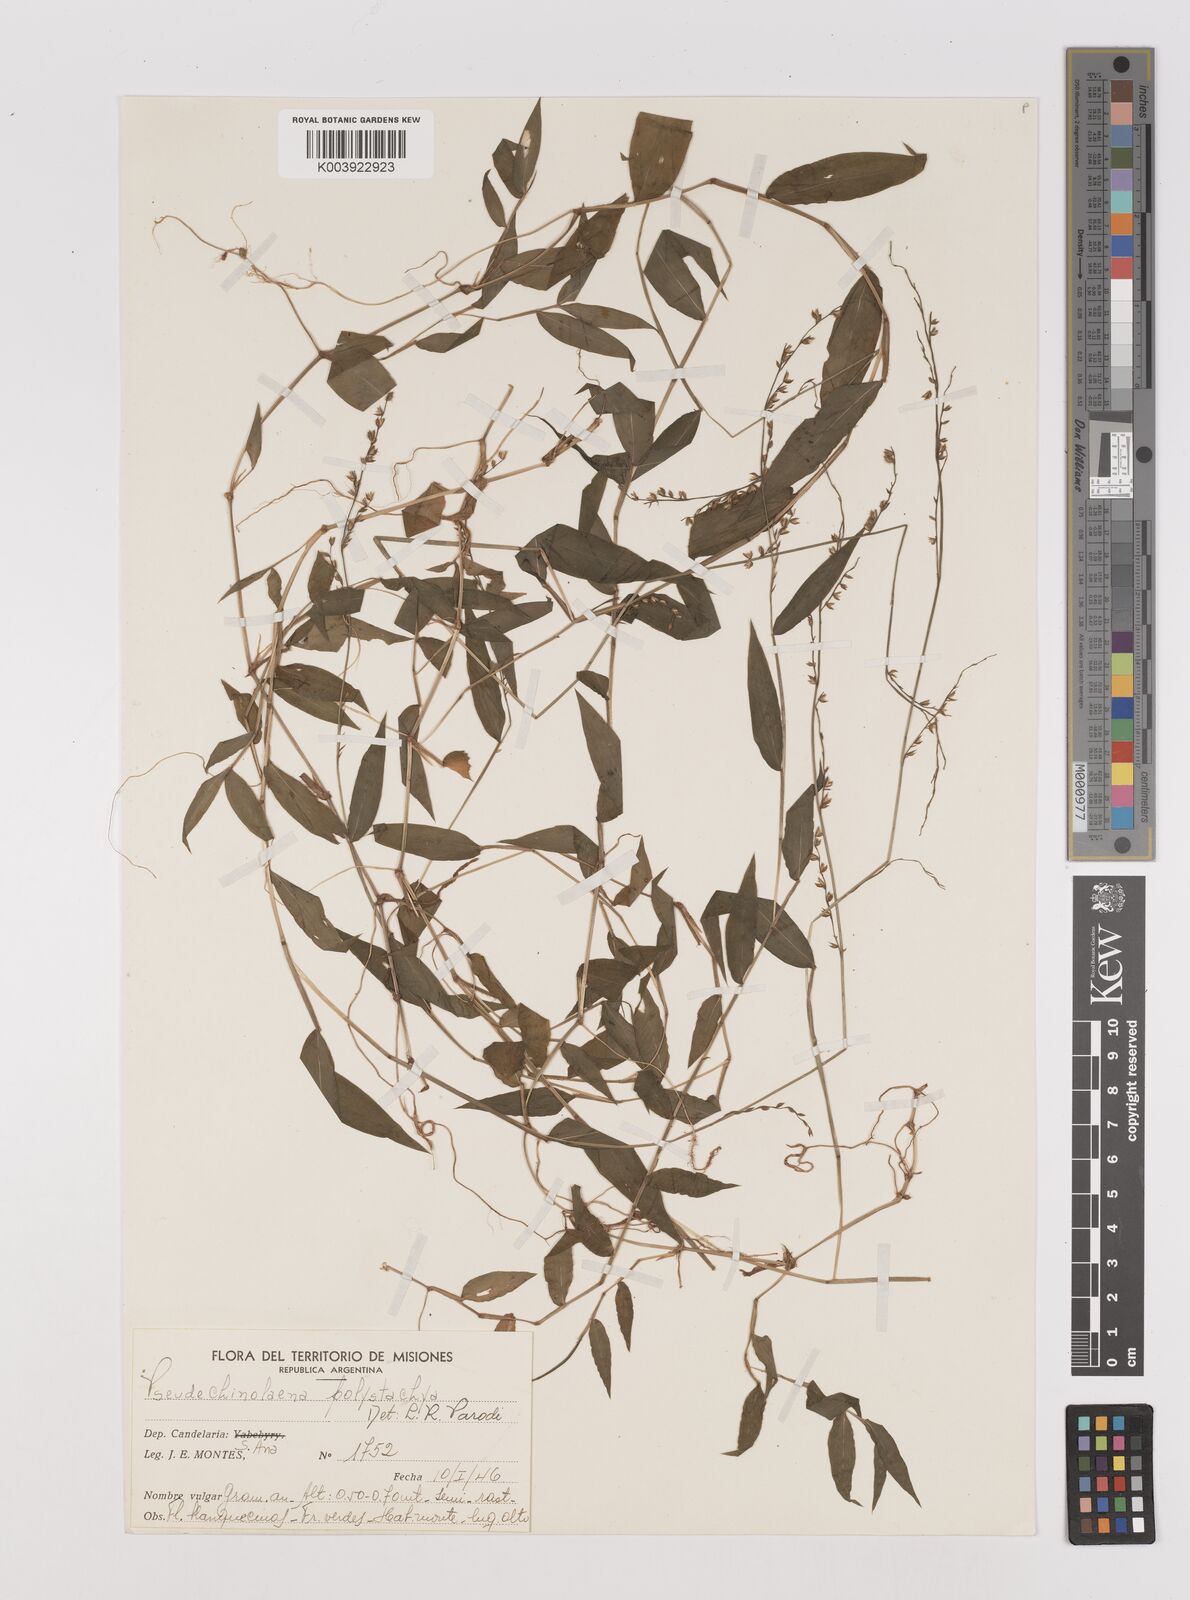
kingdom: Plantae
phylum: Tracheophyta
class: Liliopsida
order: Poales
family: Poaceae
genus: Pseudechinolaena
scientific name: Pseudechinolaena polystachya
